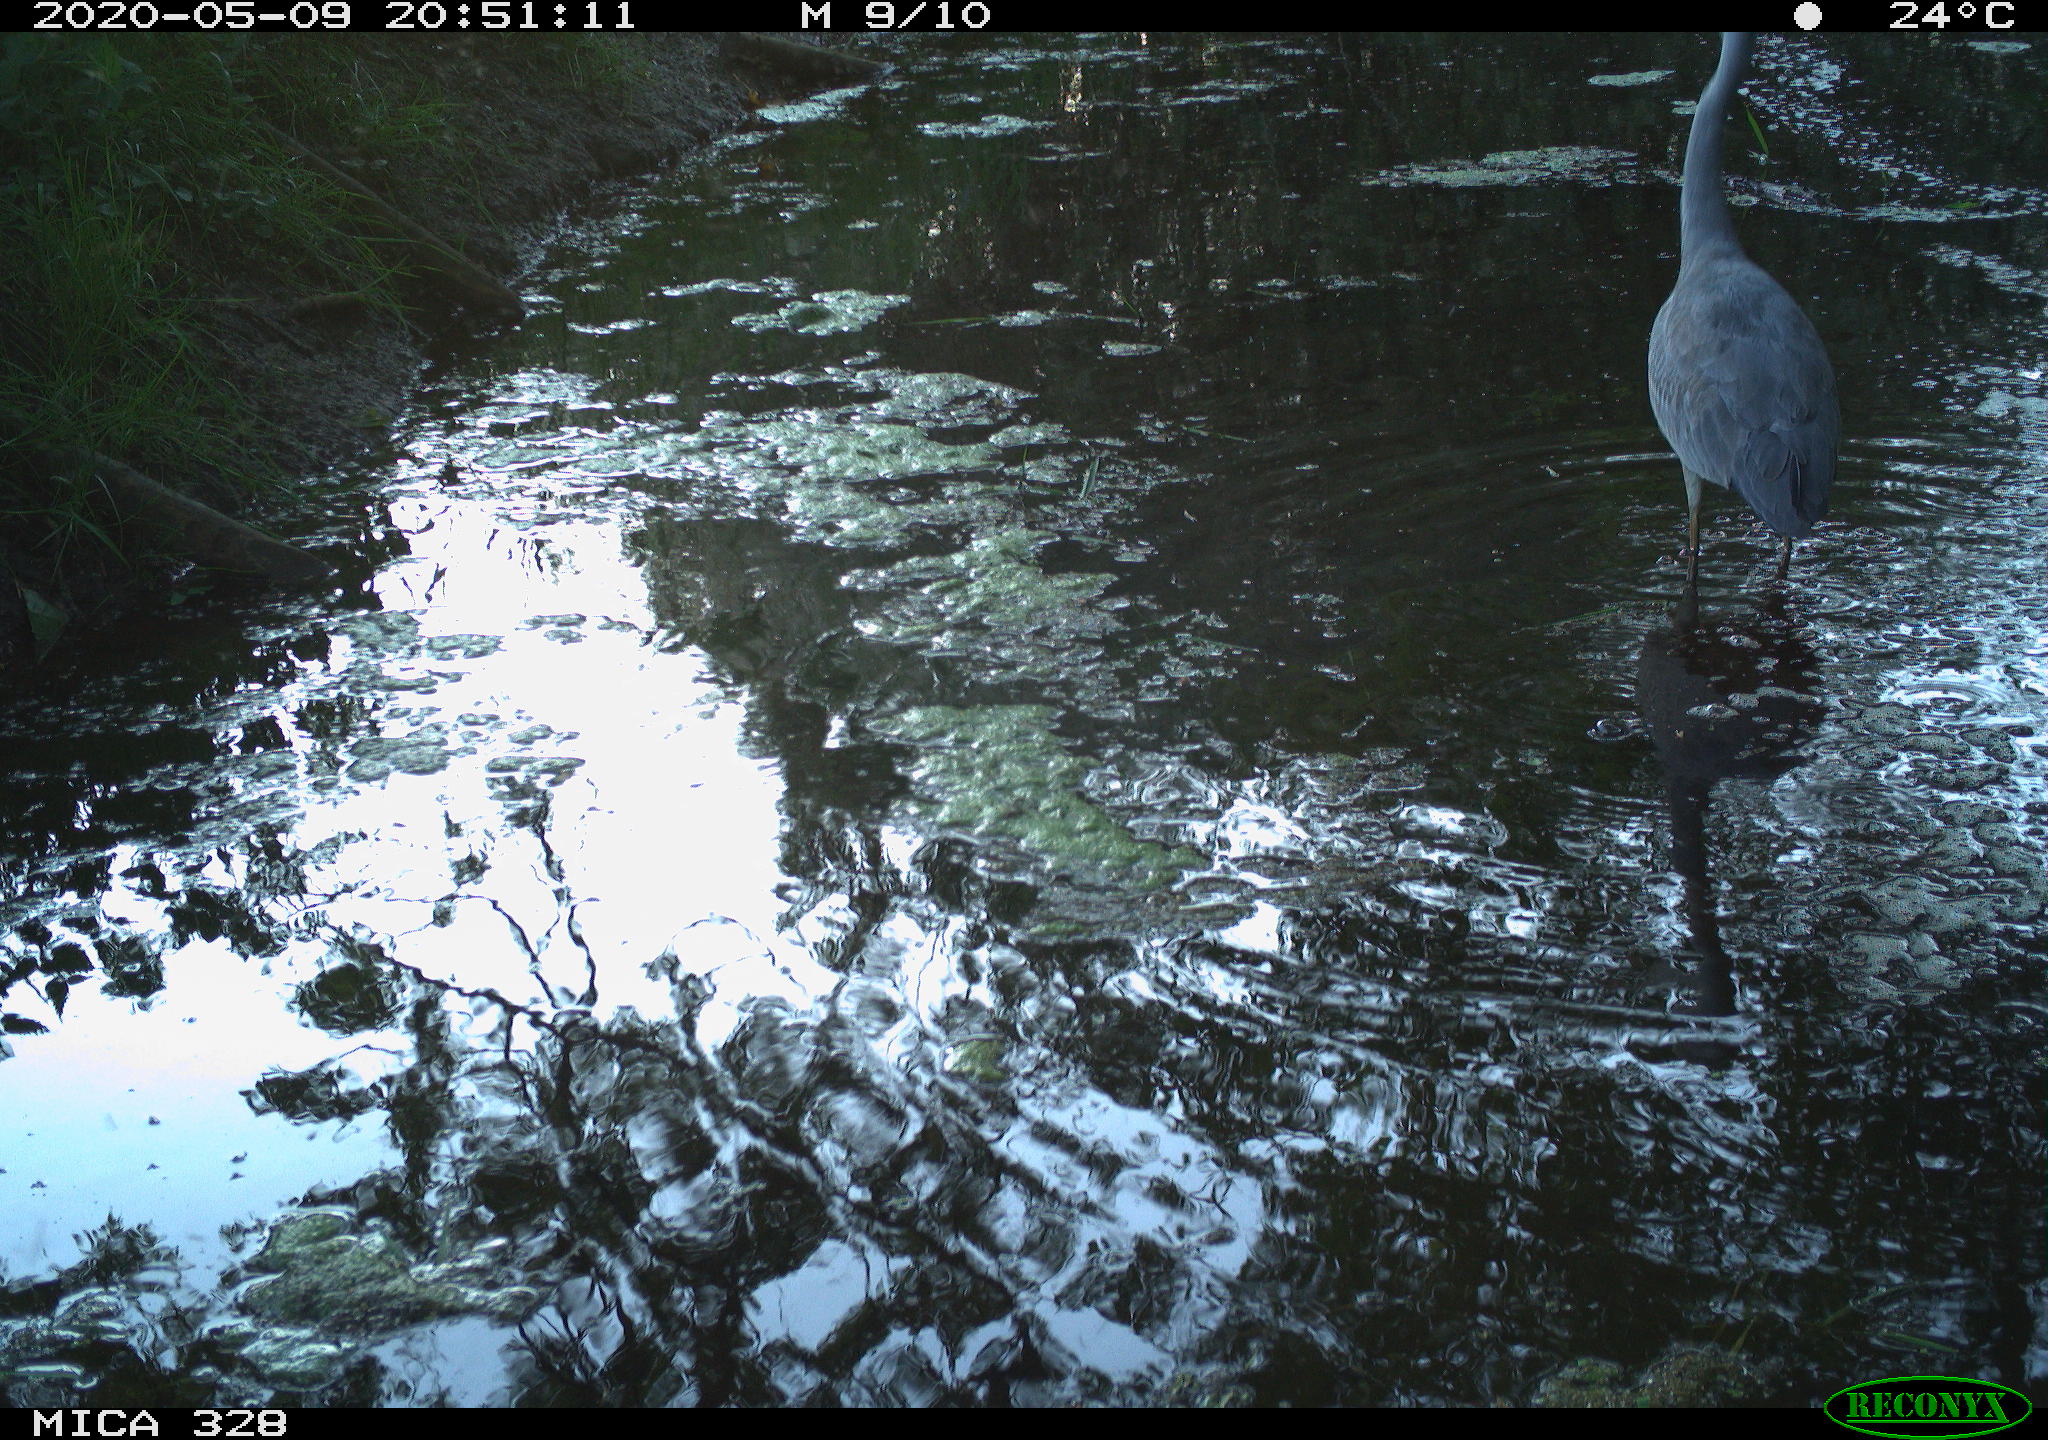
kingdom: Animalia
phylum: Chordata
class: Aves
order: Pelecaniformes
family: Ardeidae
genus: Ardea
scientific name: Ardea cinerea
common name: Grey heron
